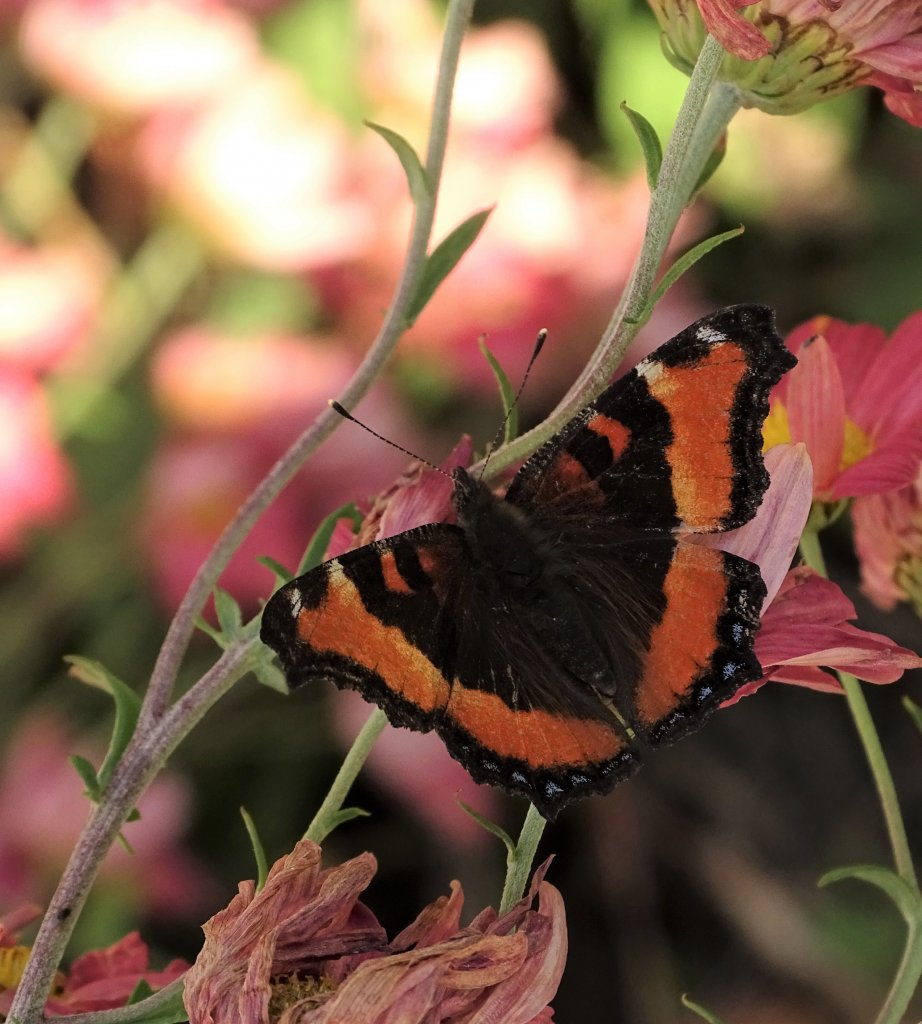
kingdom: Animalia
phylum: Arthropoda
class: Insecta
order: Lepidoptera
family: Nymphalidae
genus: Aglais
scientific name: Aglais milberti
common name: Milbert's Tortoiseshell
